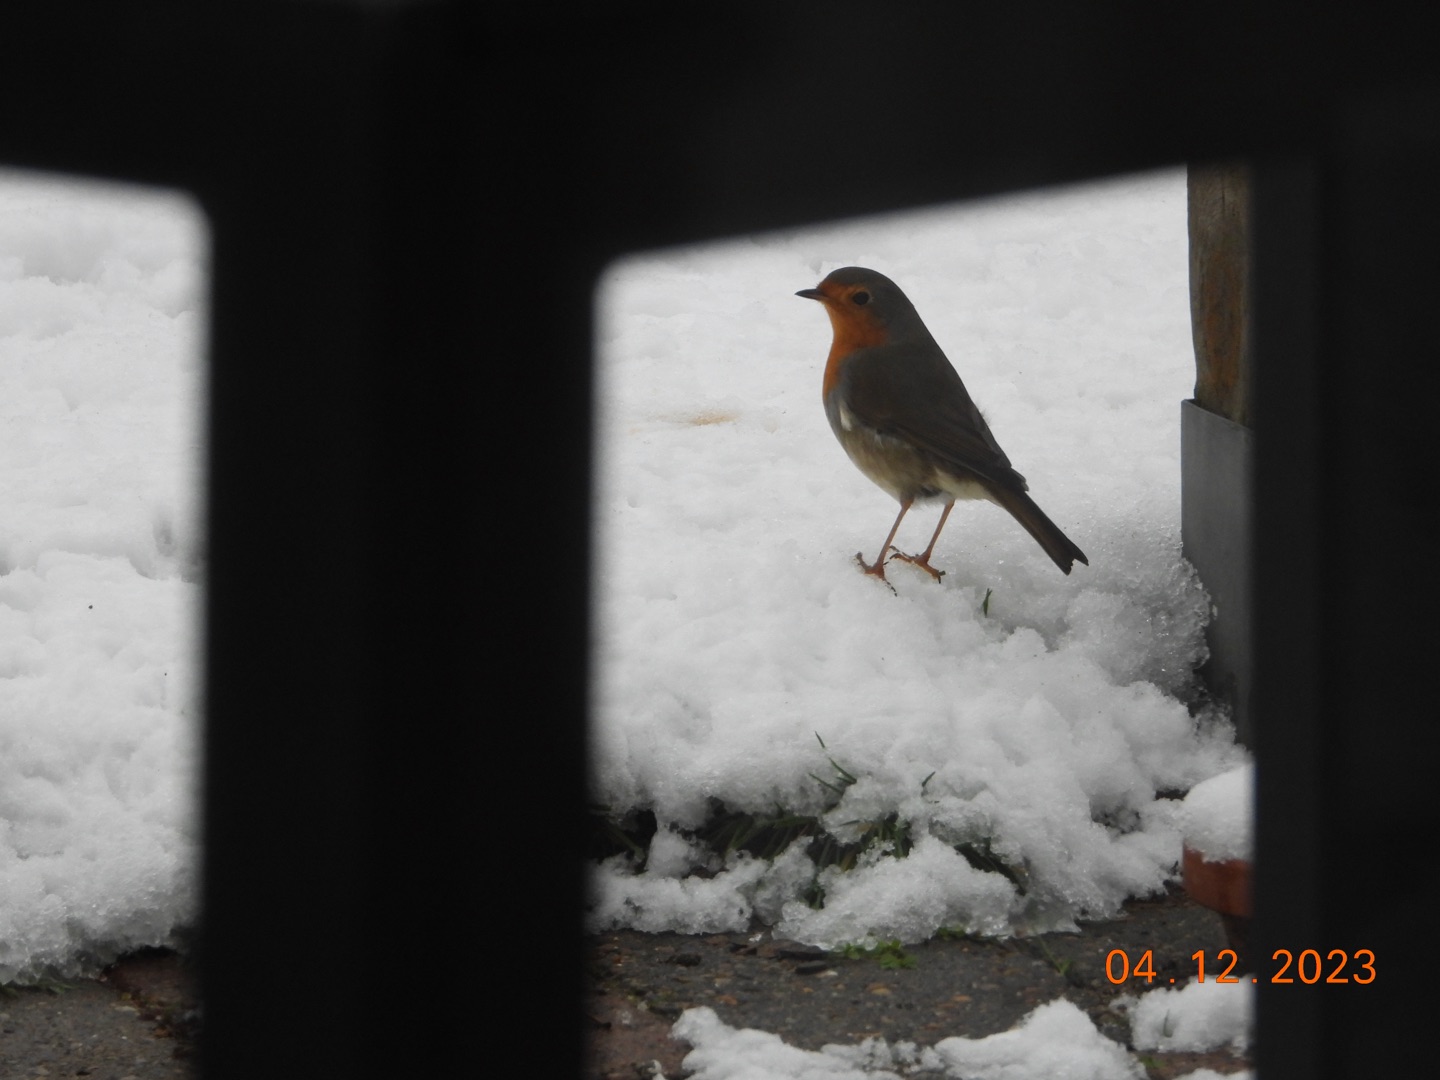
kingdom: Animalia
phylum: Chordata
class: Aves
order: Passeriformes
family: Muscicapidae
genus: Erithacus
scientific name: Erithacus rubecula
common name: Rødhals/rødkælk
